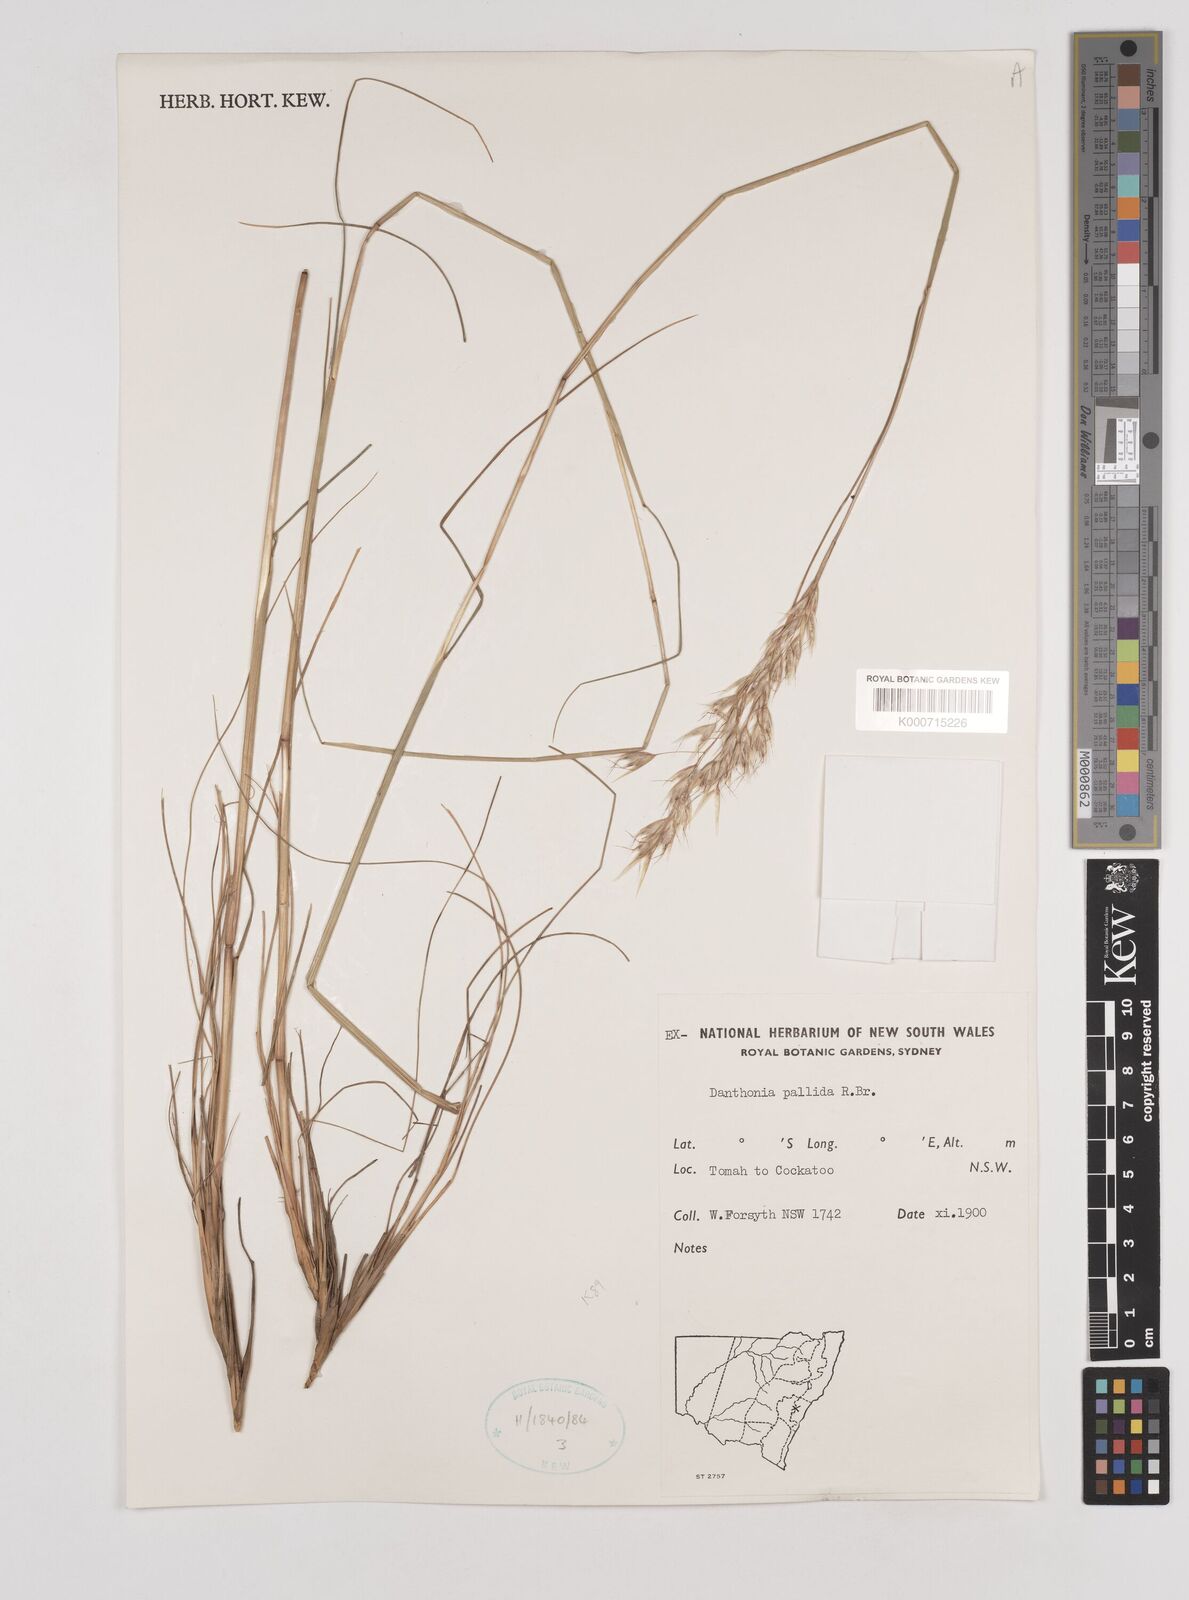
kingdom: Plantae
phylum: Tracheophyta
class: Liliopsida
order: Poales
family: Poaceae
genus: Rytidosperma
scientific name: Rytidosperma
